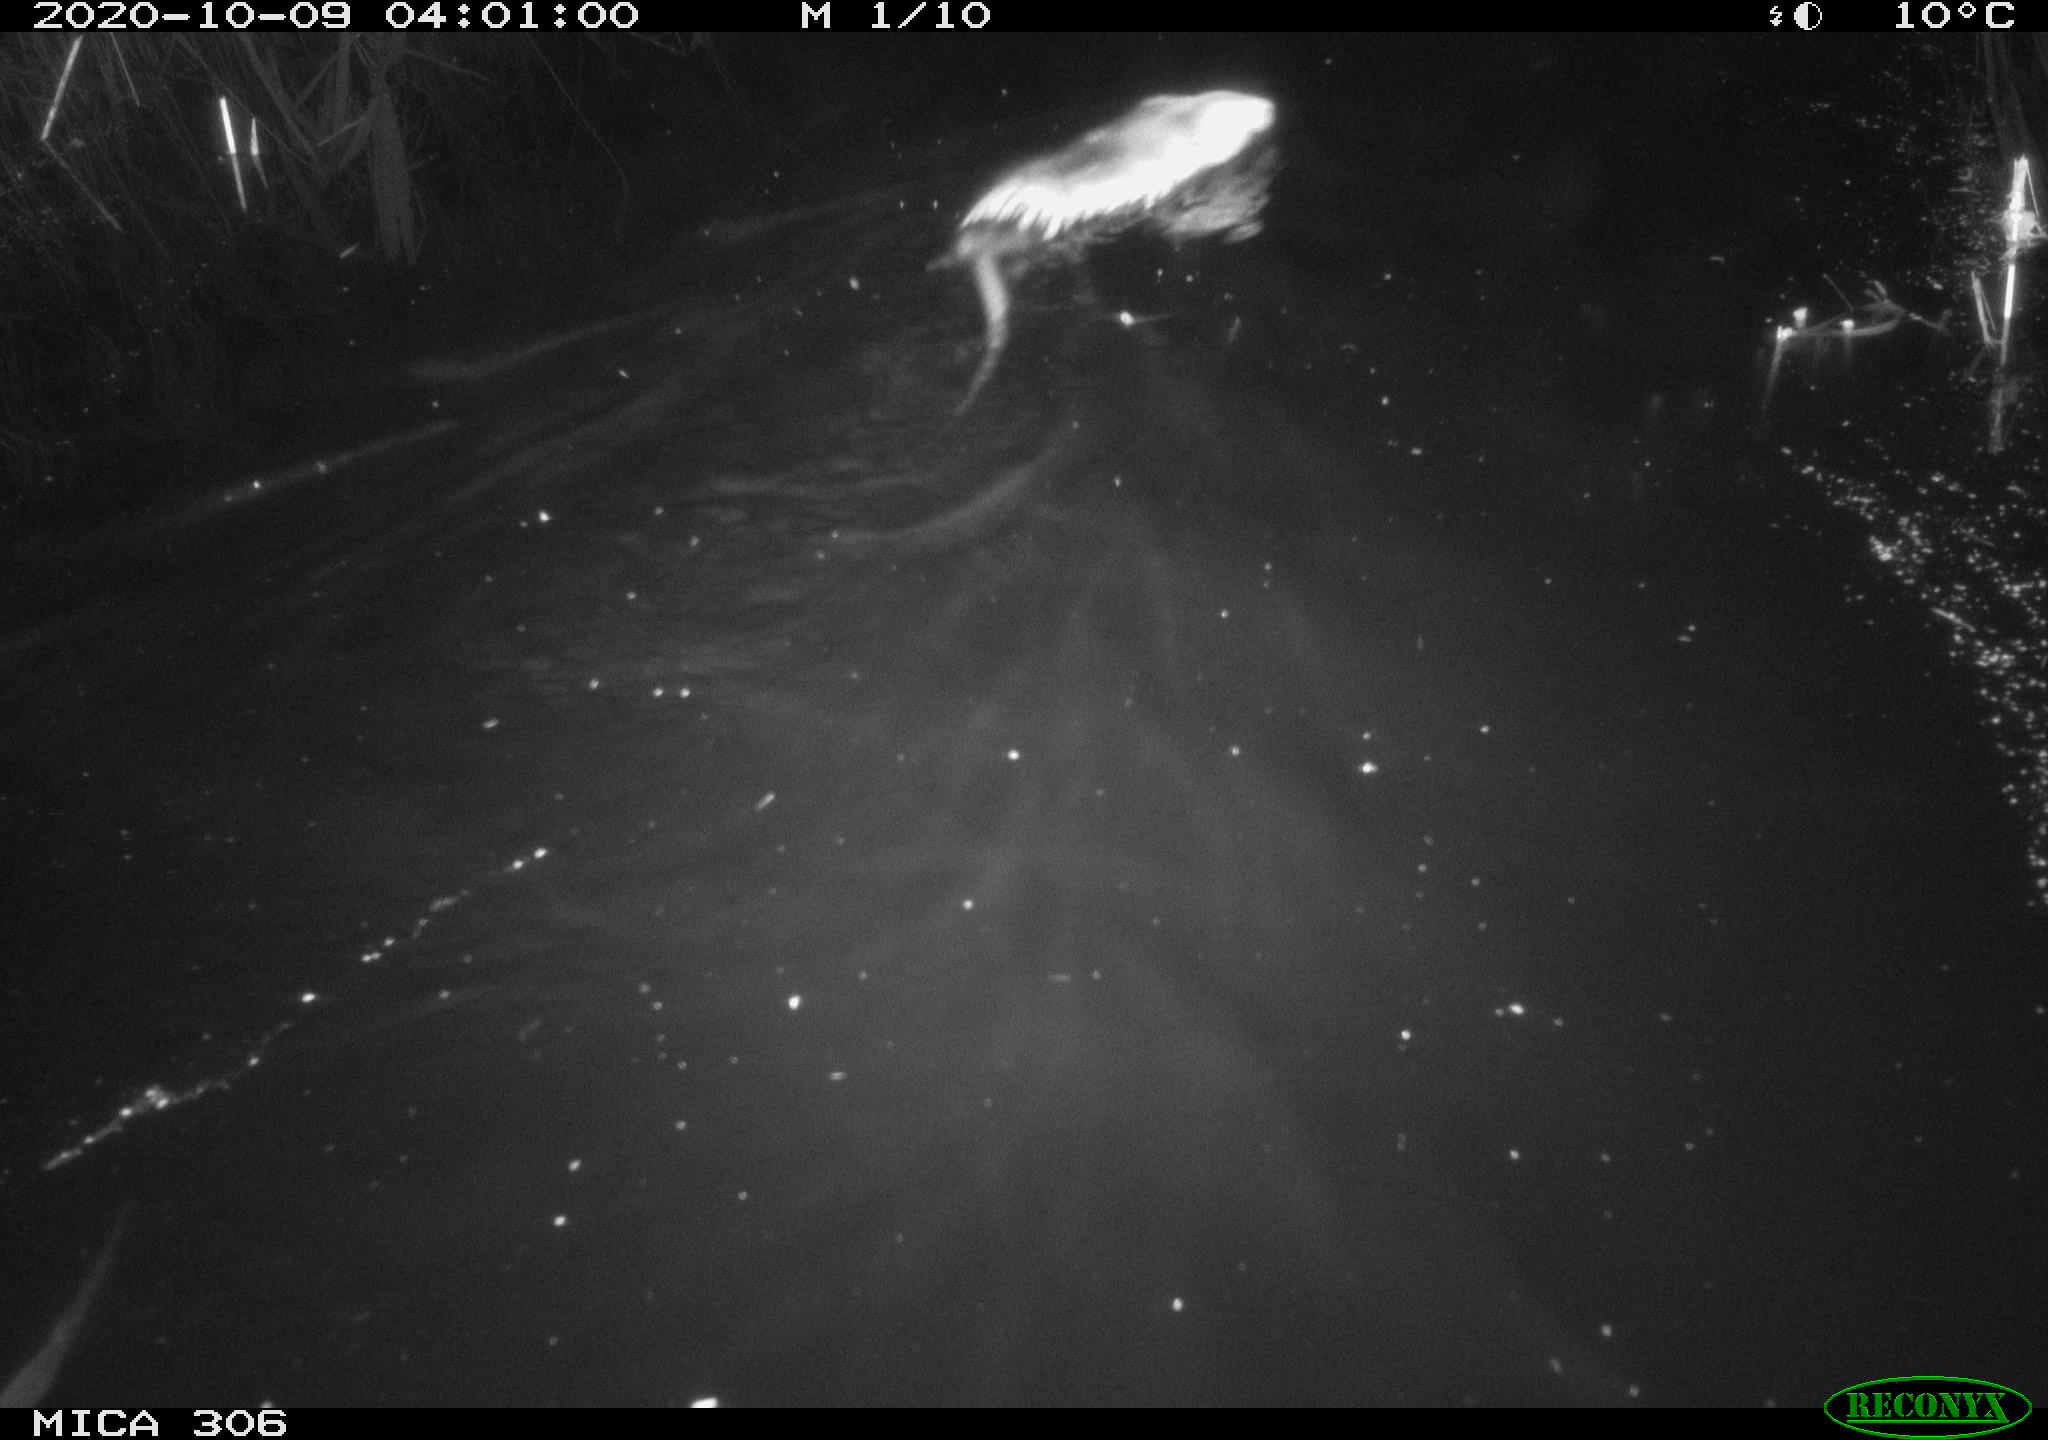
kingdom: Animalia
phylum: Chordata
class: Mammalia
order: Rodentia
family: Cricetidae
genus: Ondatra
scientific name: Ondatra zibethicus
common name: Muskrat
